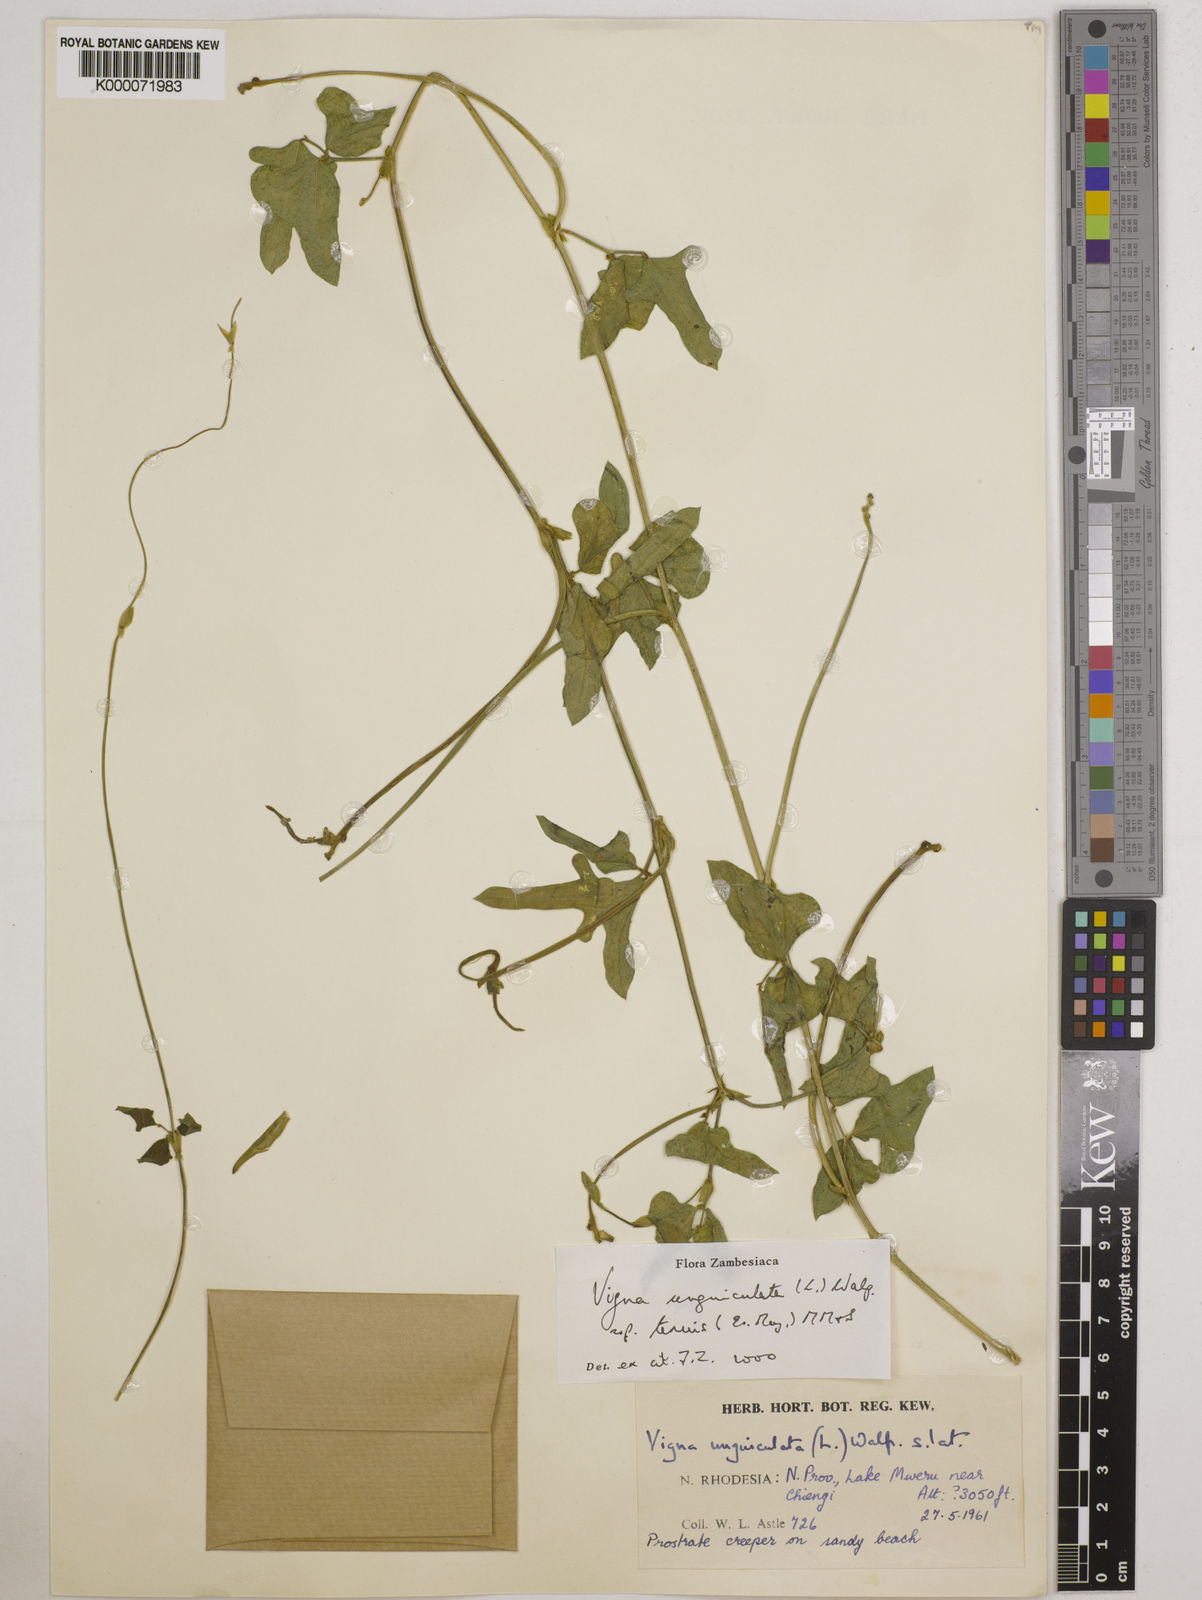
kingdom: Plantae
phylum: Tracheophyta
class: Magnoliopsida
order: Fabales
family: Fabaceae
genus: Vigna
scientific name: Vigna unguiculata
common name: Cowpea
